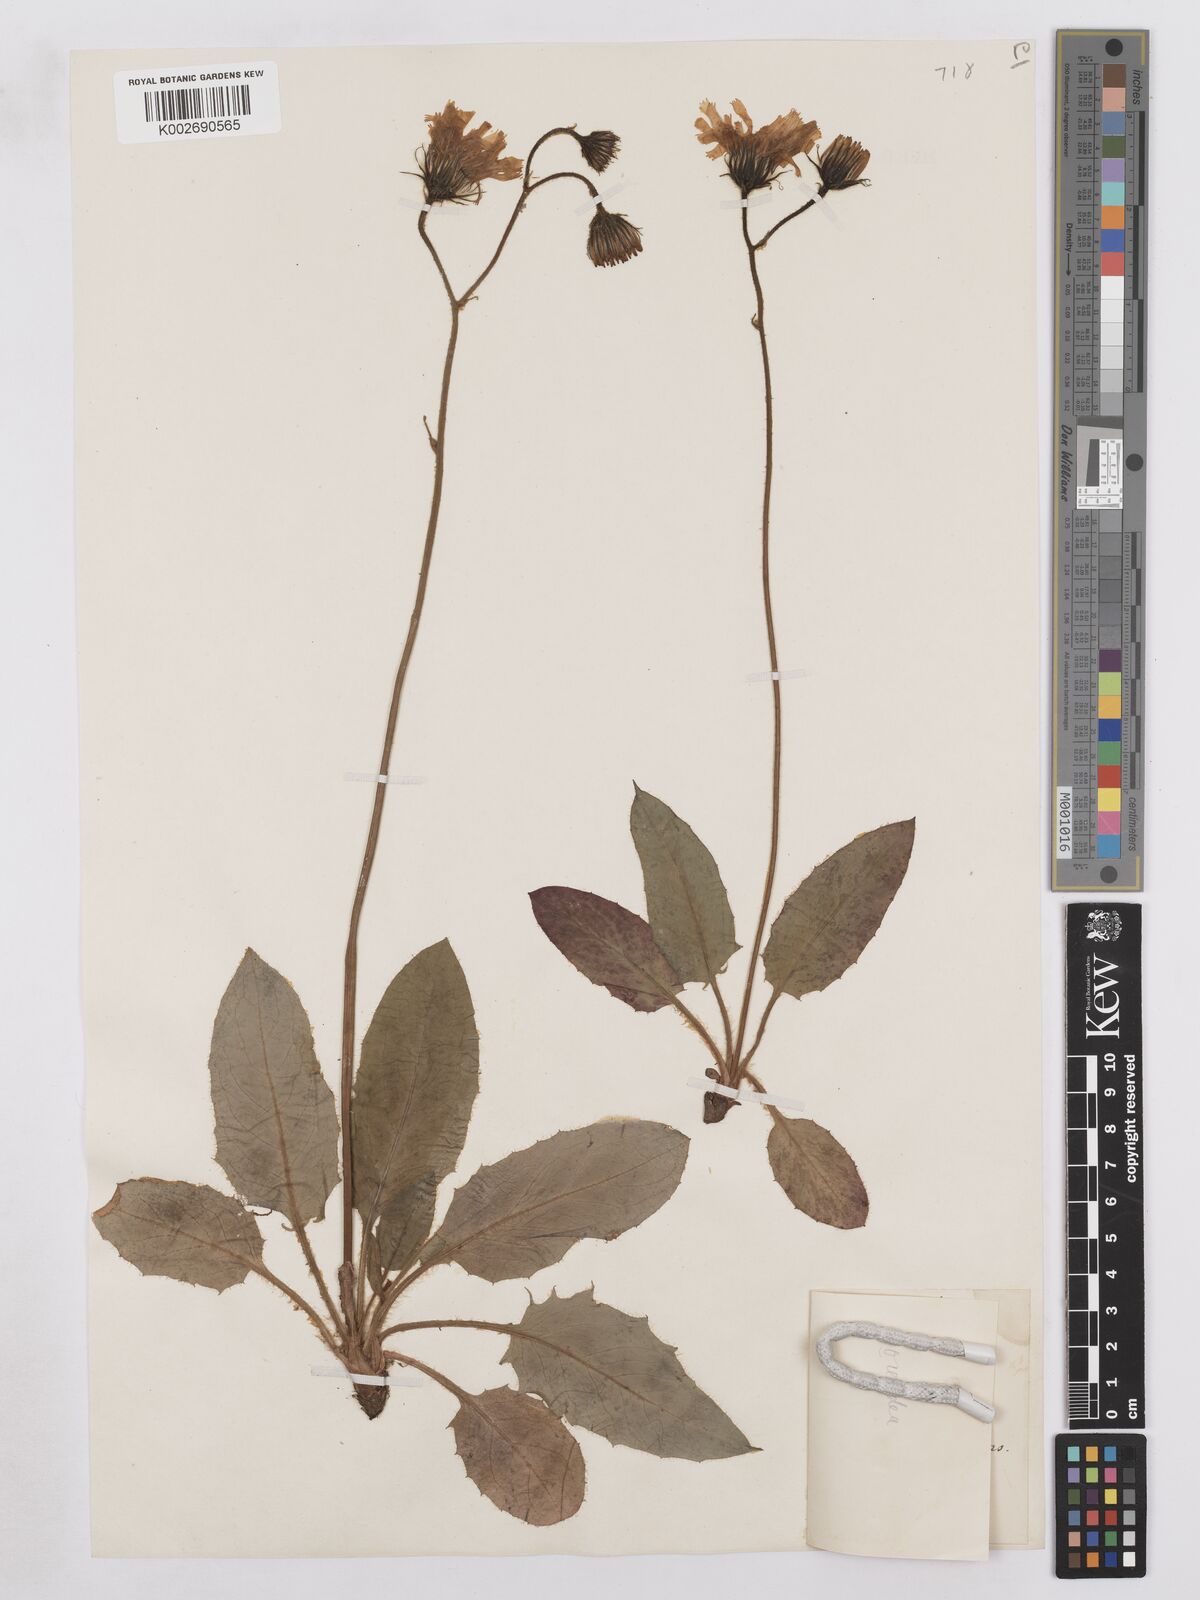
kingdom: Plantae
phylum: Tracheophyta
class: Magnoliopsida
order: Asterales
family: Asteraceae
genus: Hieracium
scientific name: Hieracium saxorum
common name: Rock hawkweed
